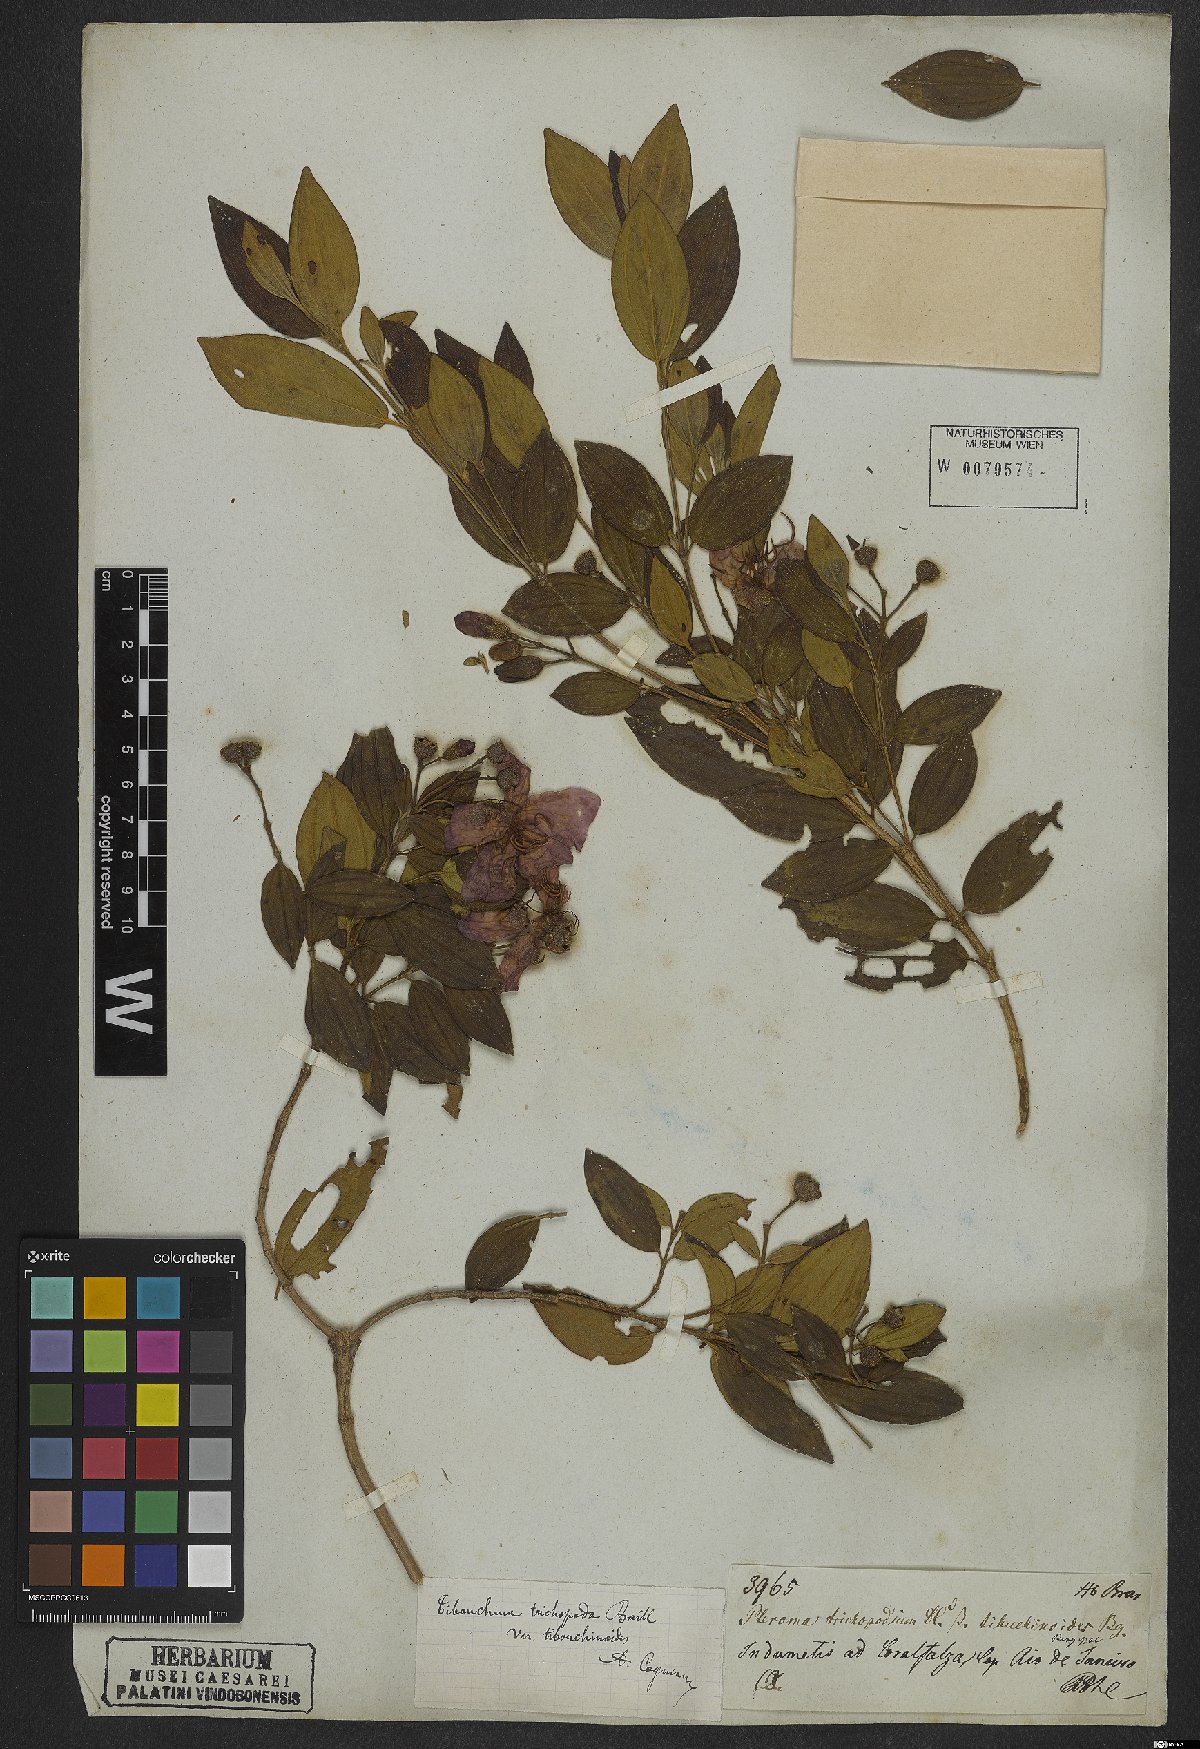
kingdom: Plantae
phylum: Tracheophyta
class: Magnoliopsida
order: Myrtales
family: Melastomataceae
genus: Pleroma
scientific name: Pleroma trichopodum
